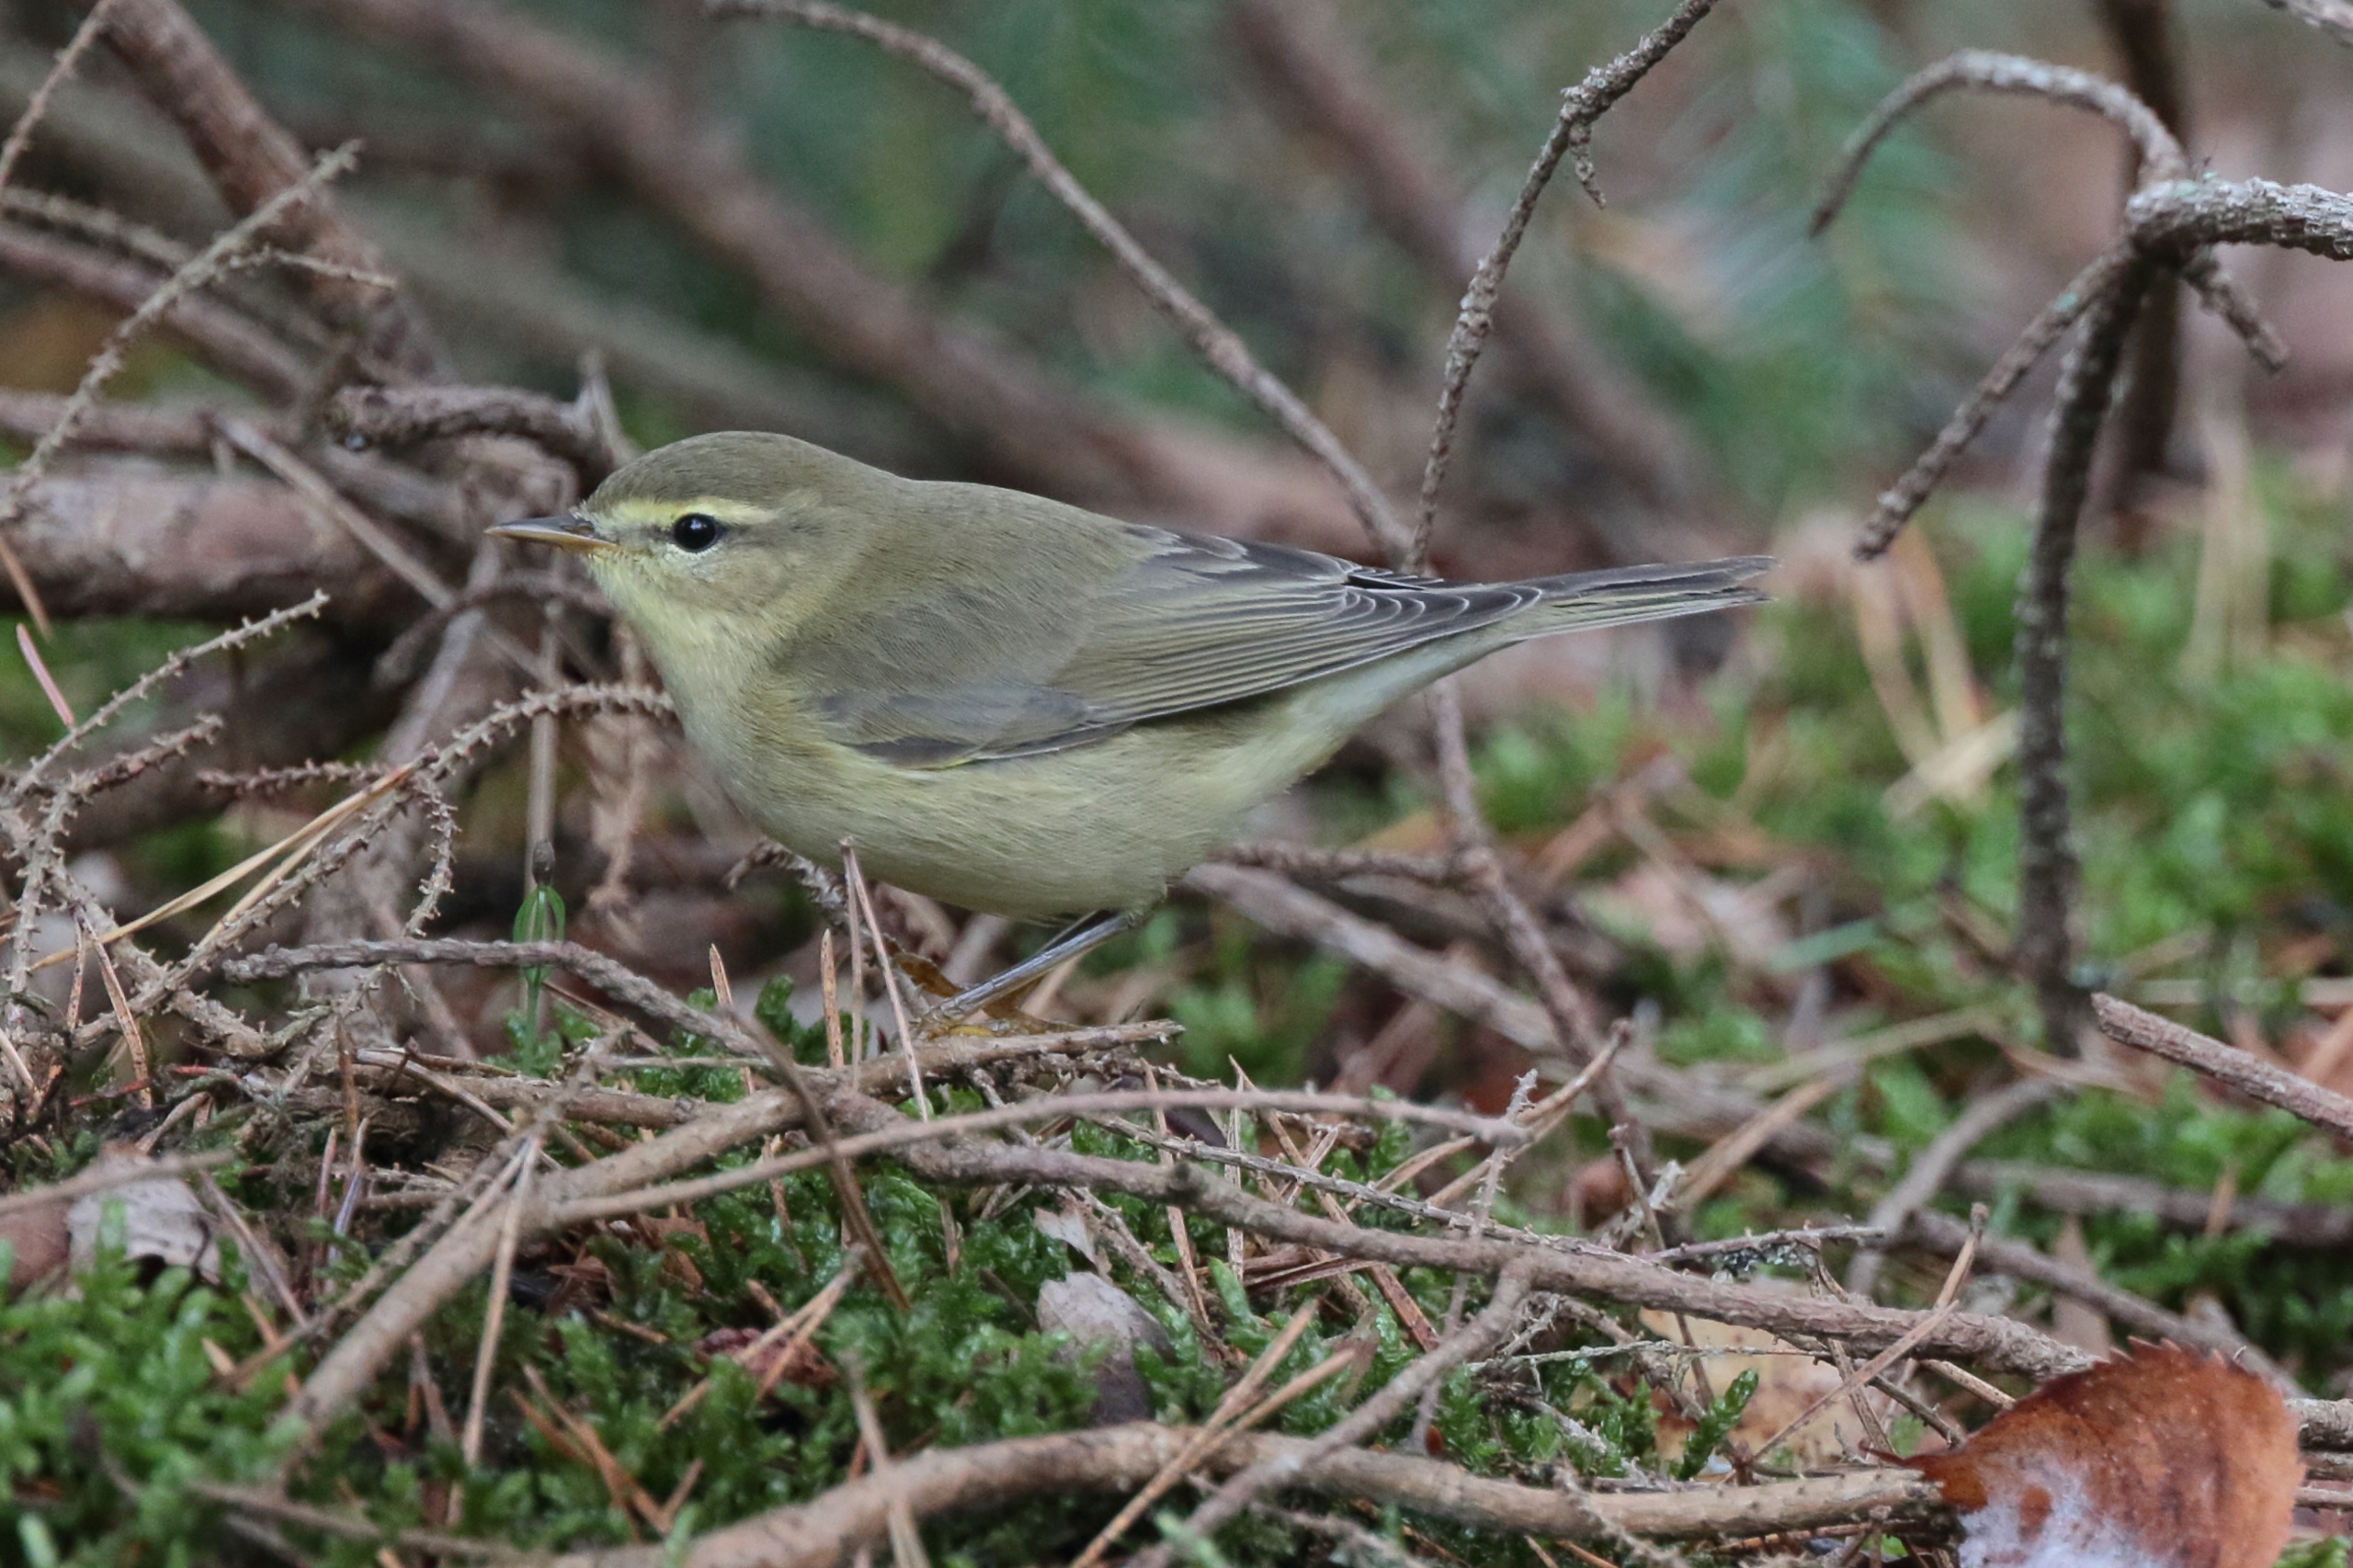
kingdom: Animalia
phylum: Chordata
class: Aves
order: Passeriformes
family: Phylloscopidae
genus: Phylloscopus
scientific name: Phylloscopus trochilus
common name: Løvsanger
